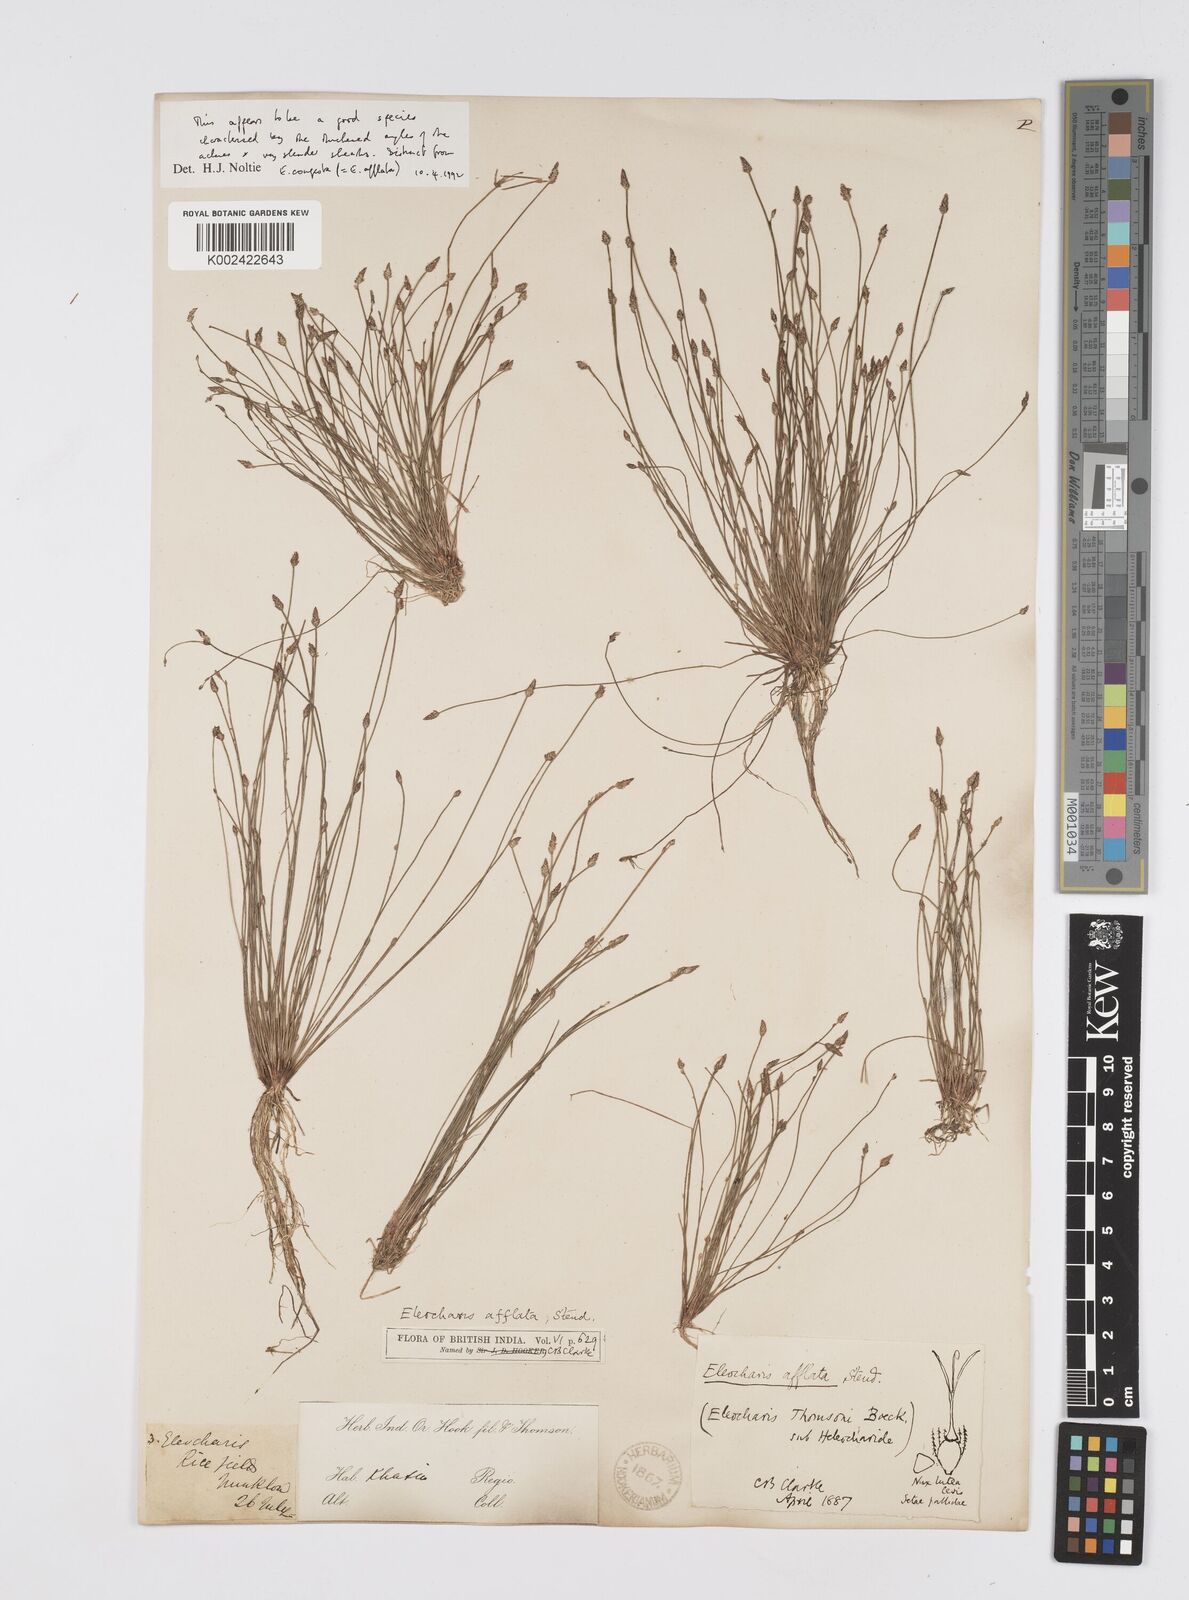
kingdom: Plantae
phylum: Tracheophyta
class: Liliopsida
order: Poales
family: Cyperaceae
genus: Eleocharis
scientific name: Eleocharis pellucida
